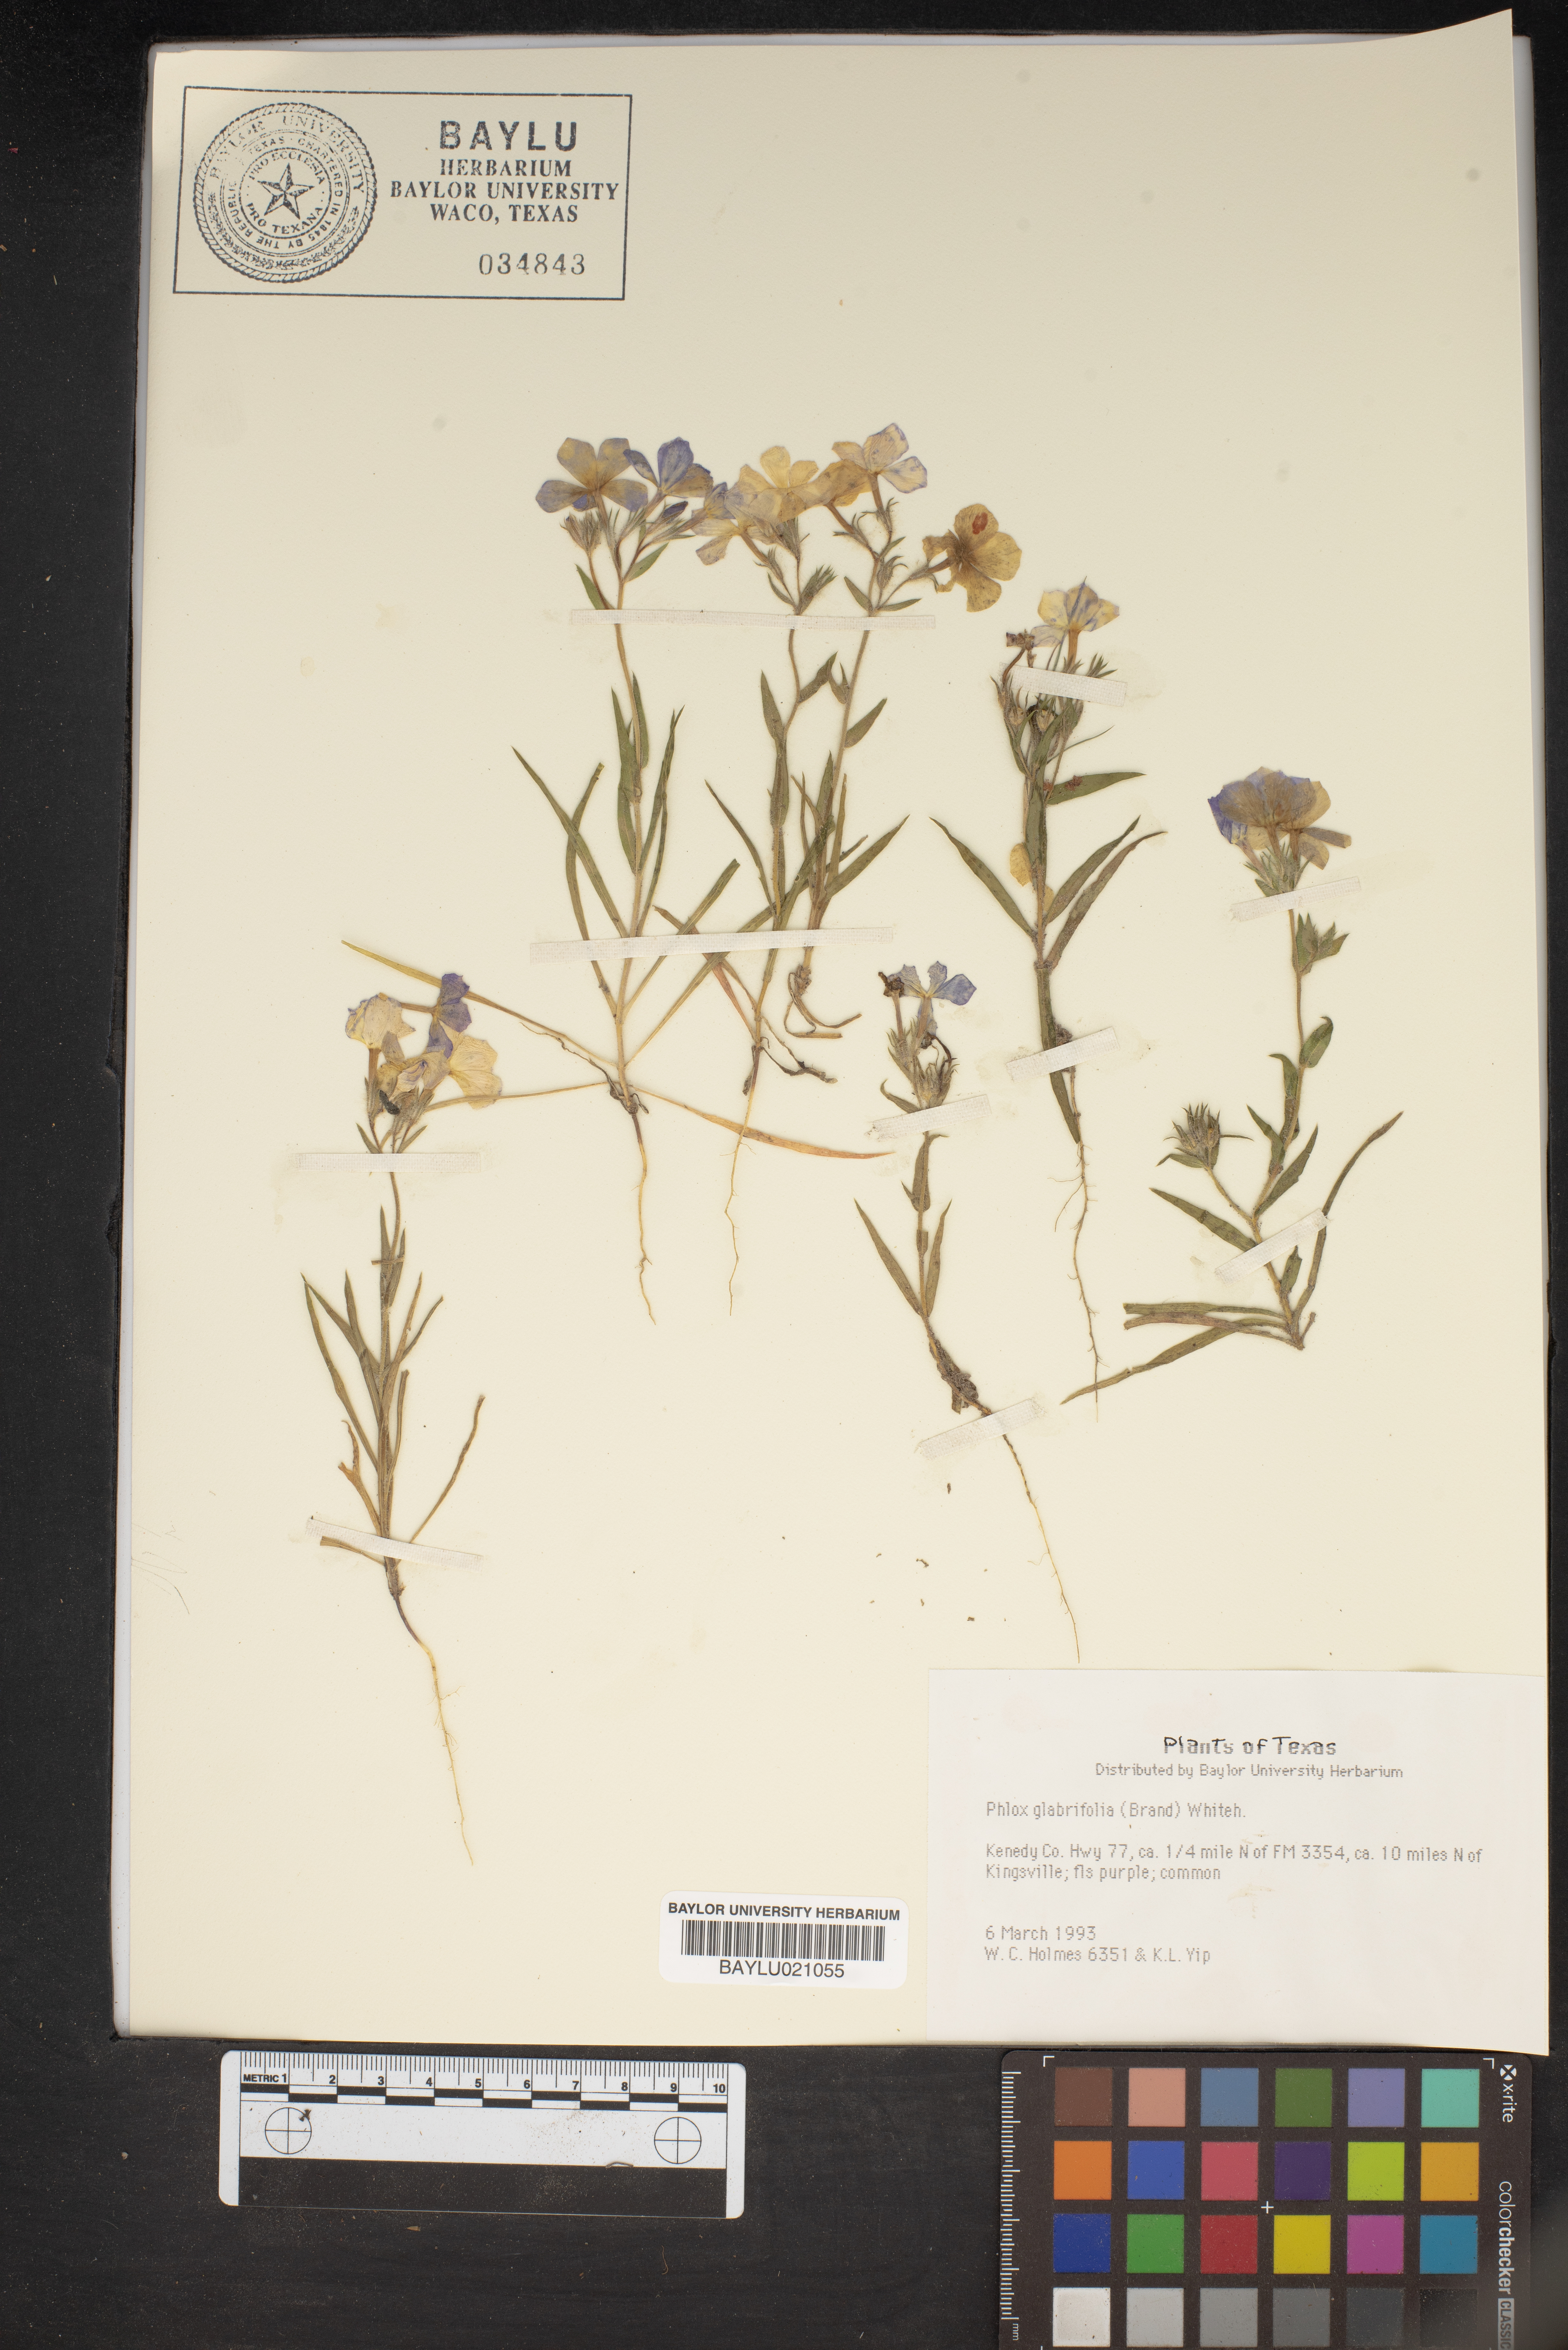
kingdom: Plantae
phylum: Tracheophyta
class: Magnoliopsida
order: Ericales
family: Polemoniaceae
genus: Phlox
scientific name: Phlox glabriflora
